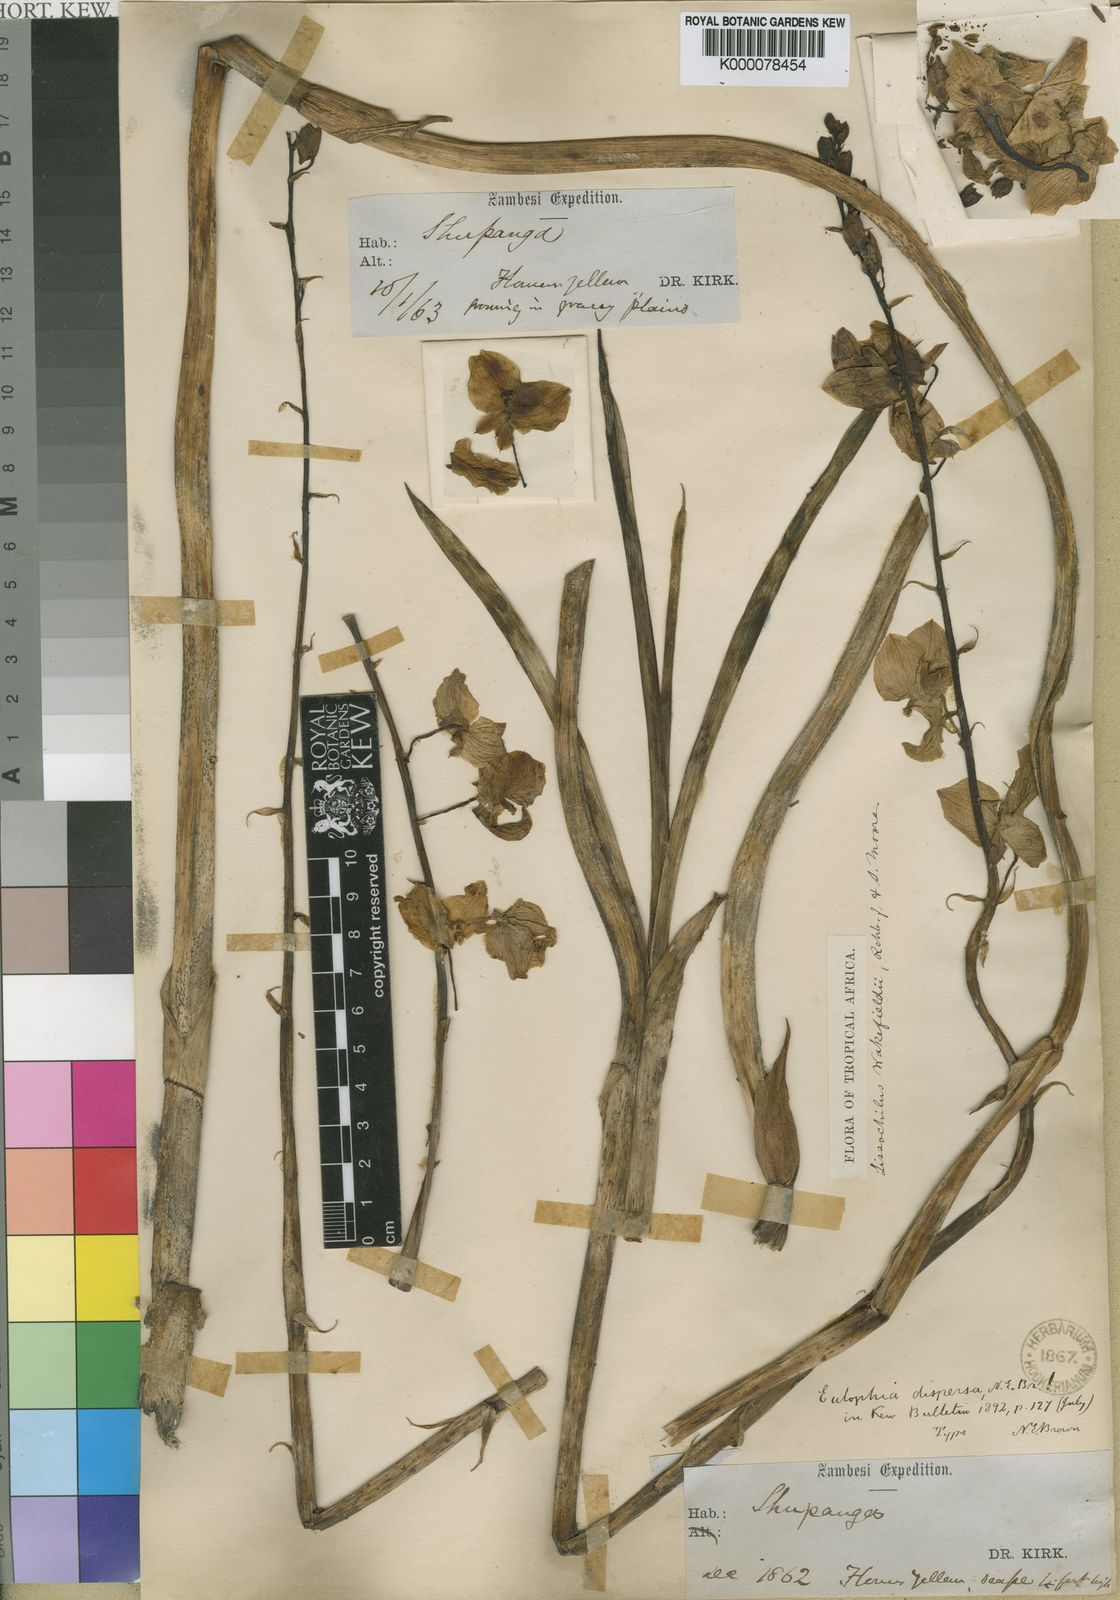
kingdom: Plantae
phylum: Tracheophyta
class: Liliopsida
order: Asparagales
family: Orchidaceae
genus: Eulophia
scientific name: Eulophia speciosa
